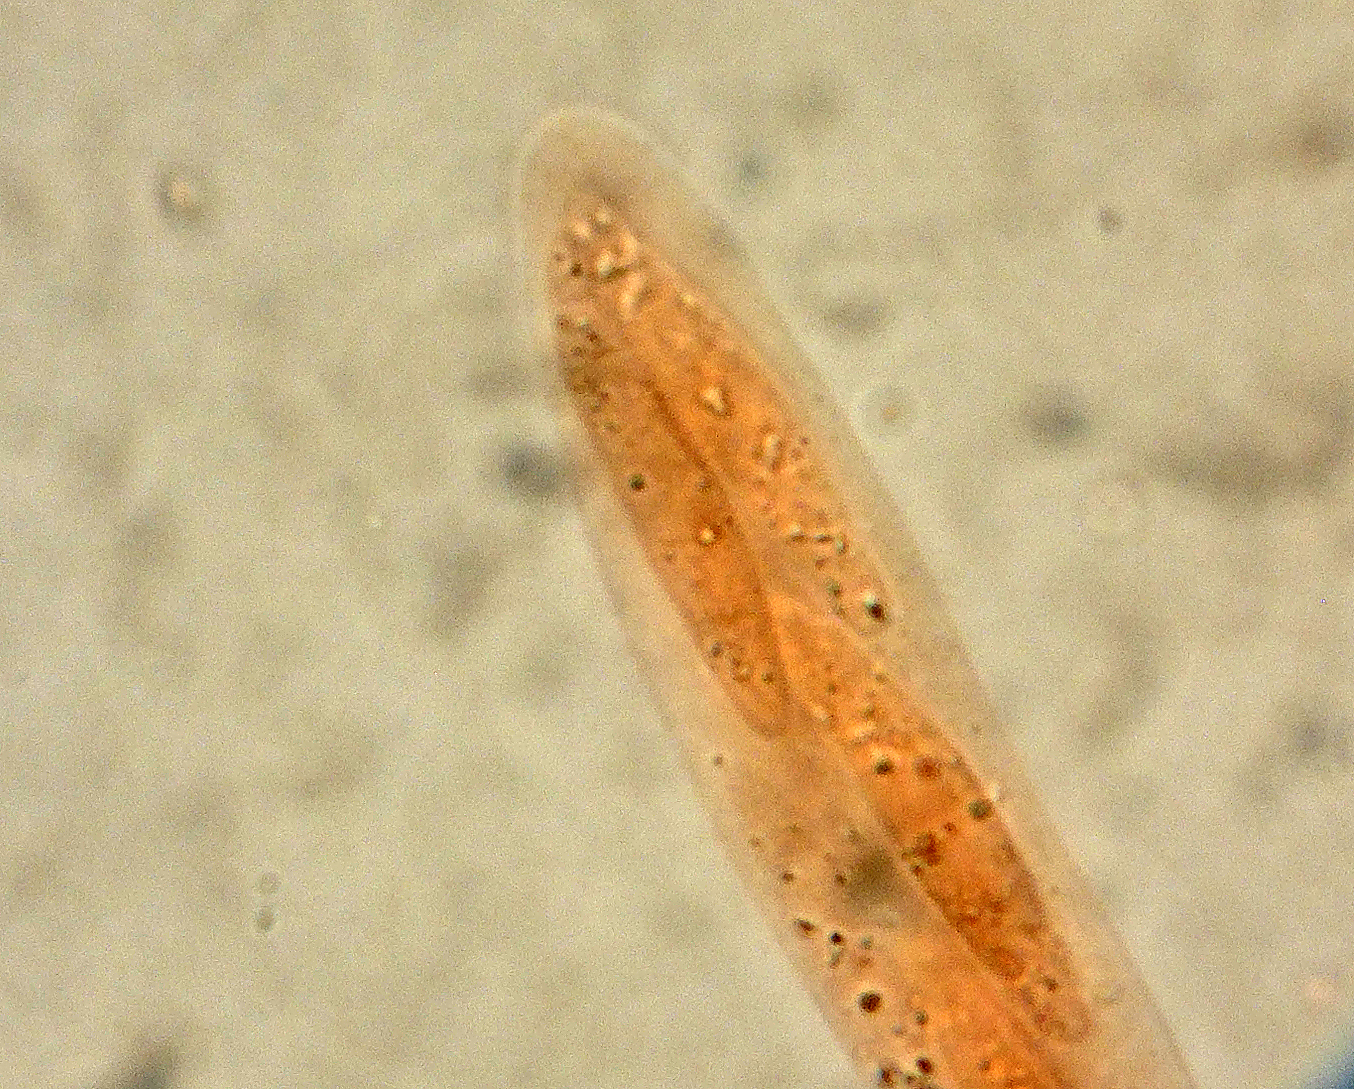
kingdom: Fungi
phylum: Ascomycota
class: Sordariomycetes
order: Hypocreales
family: Nectriaceae
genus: Calonectria
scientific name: Calonectria lauri
